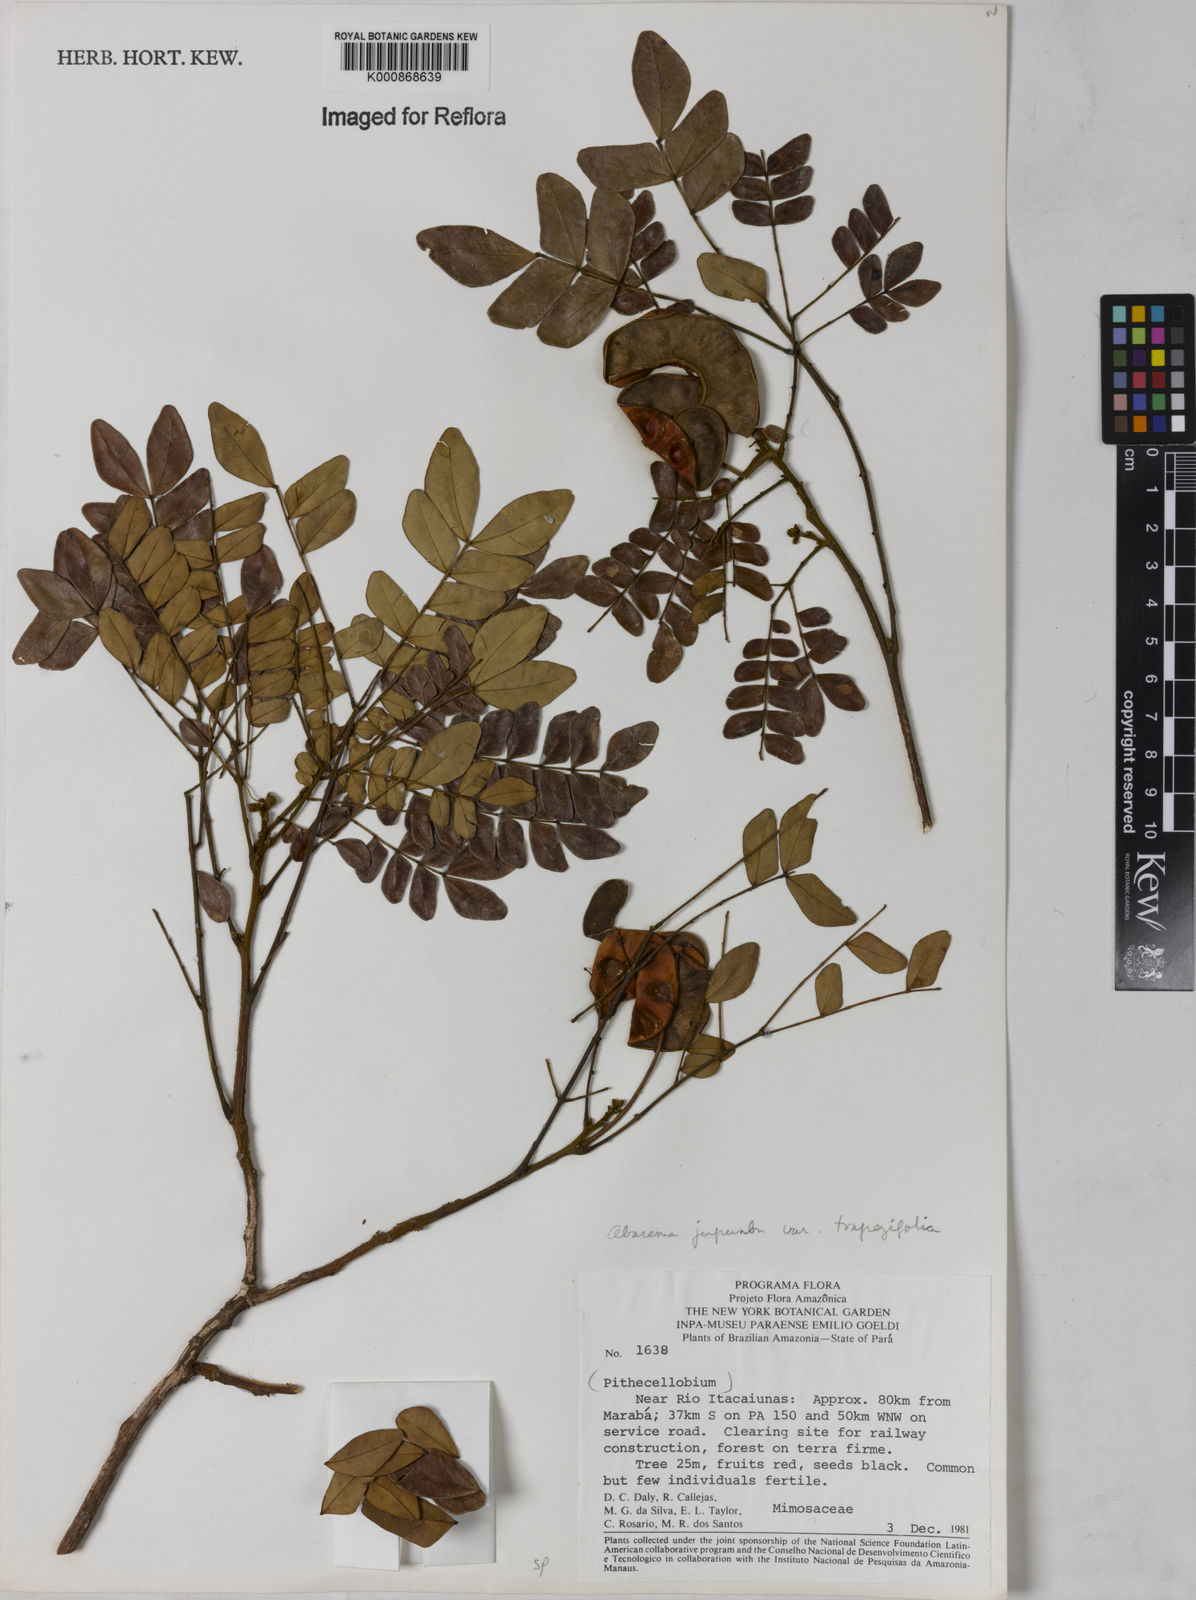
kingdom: Plantae
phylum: Tracheophyta
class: Magnoliopsida
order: Fabales
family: Fabaceae
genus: Jupunba
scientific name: Jupunba trapezifolia
